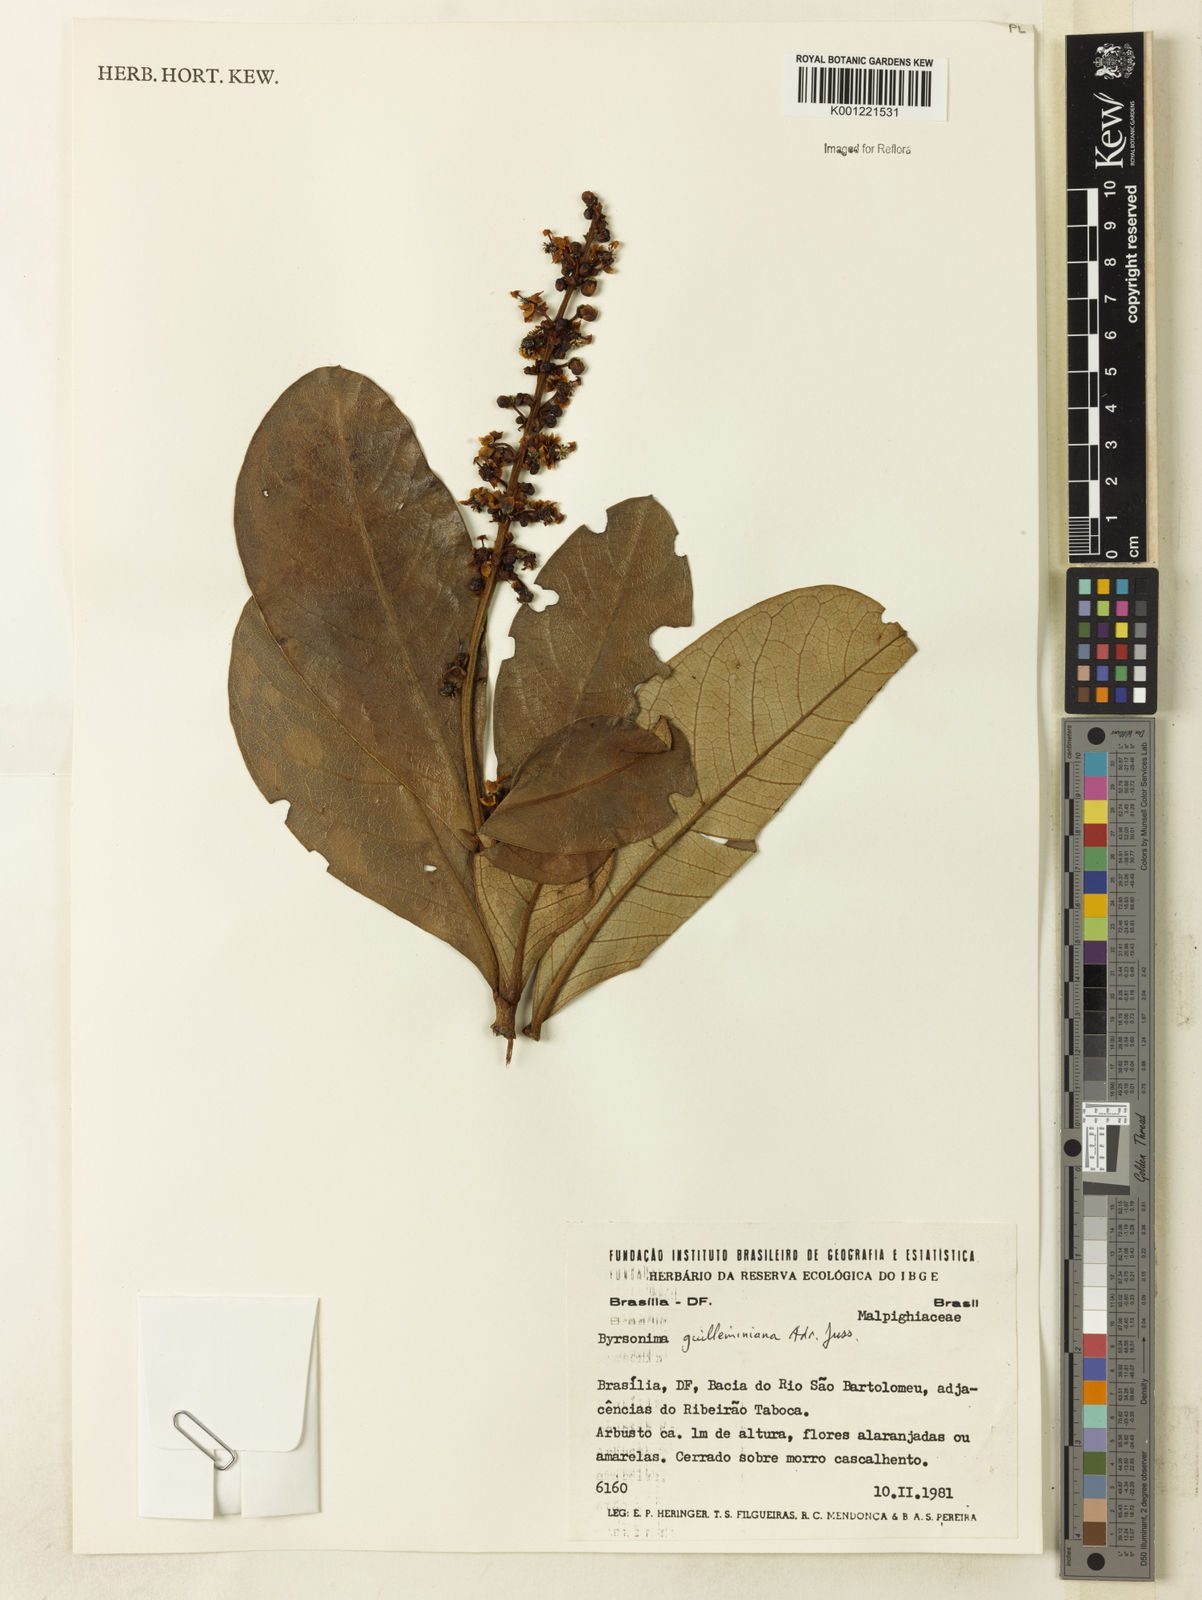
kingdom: Plantae
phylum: Tracheophyta
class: Magnoliopsida
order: Malpighiales
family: Malpighiaceae
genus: Byrsonima
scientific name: Byrsonima guilleminiana
